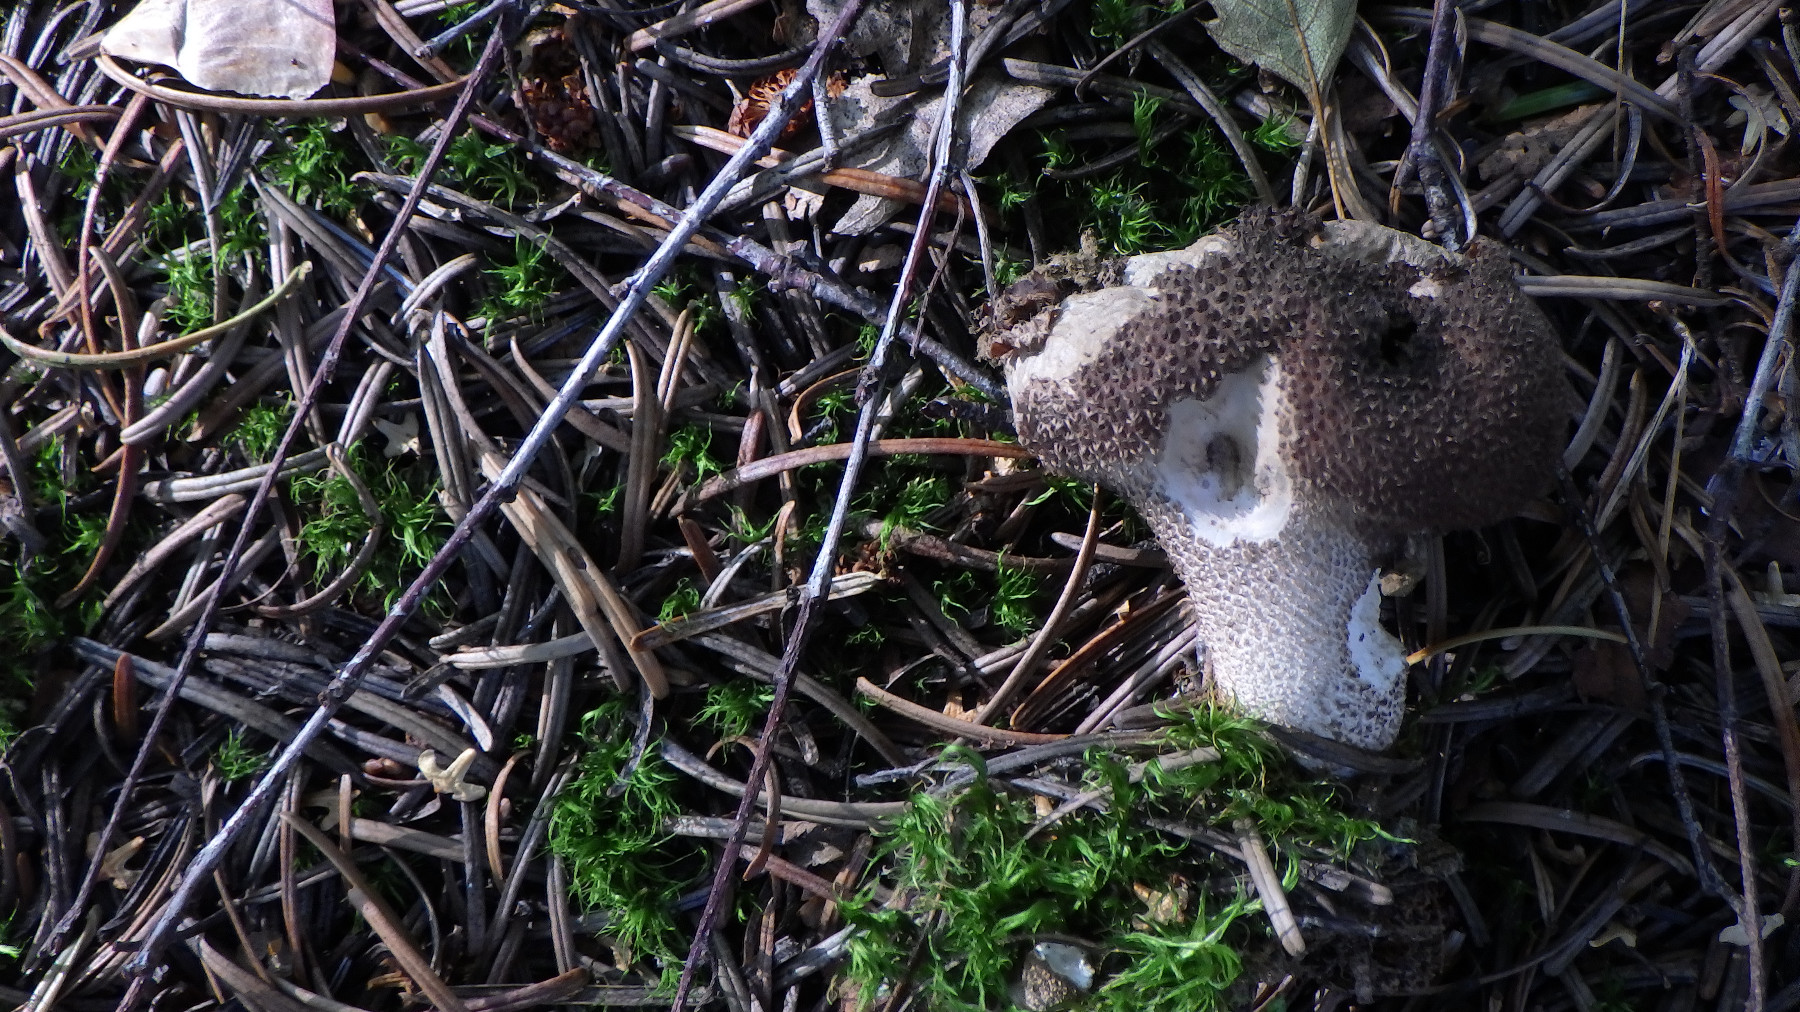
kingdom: Fungi
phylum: Basidiomycota
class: Agaricomycetes
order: Agaricales
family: Lycoperdaceae
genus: Lycoperdon
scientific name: Lycoperdon nigrescens
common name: sortagtig støvbold
